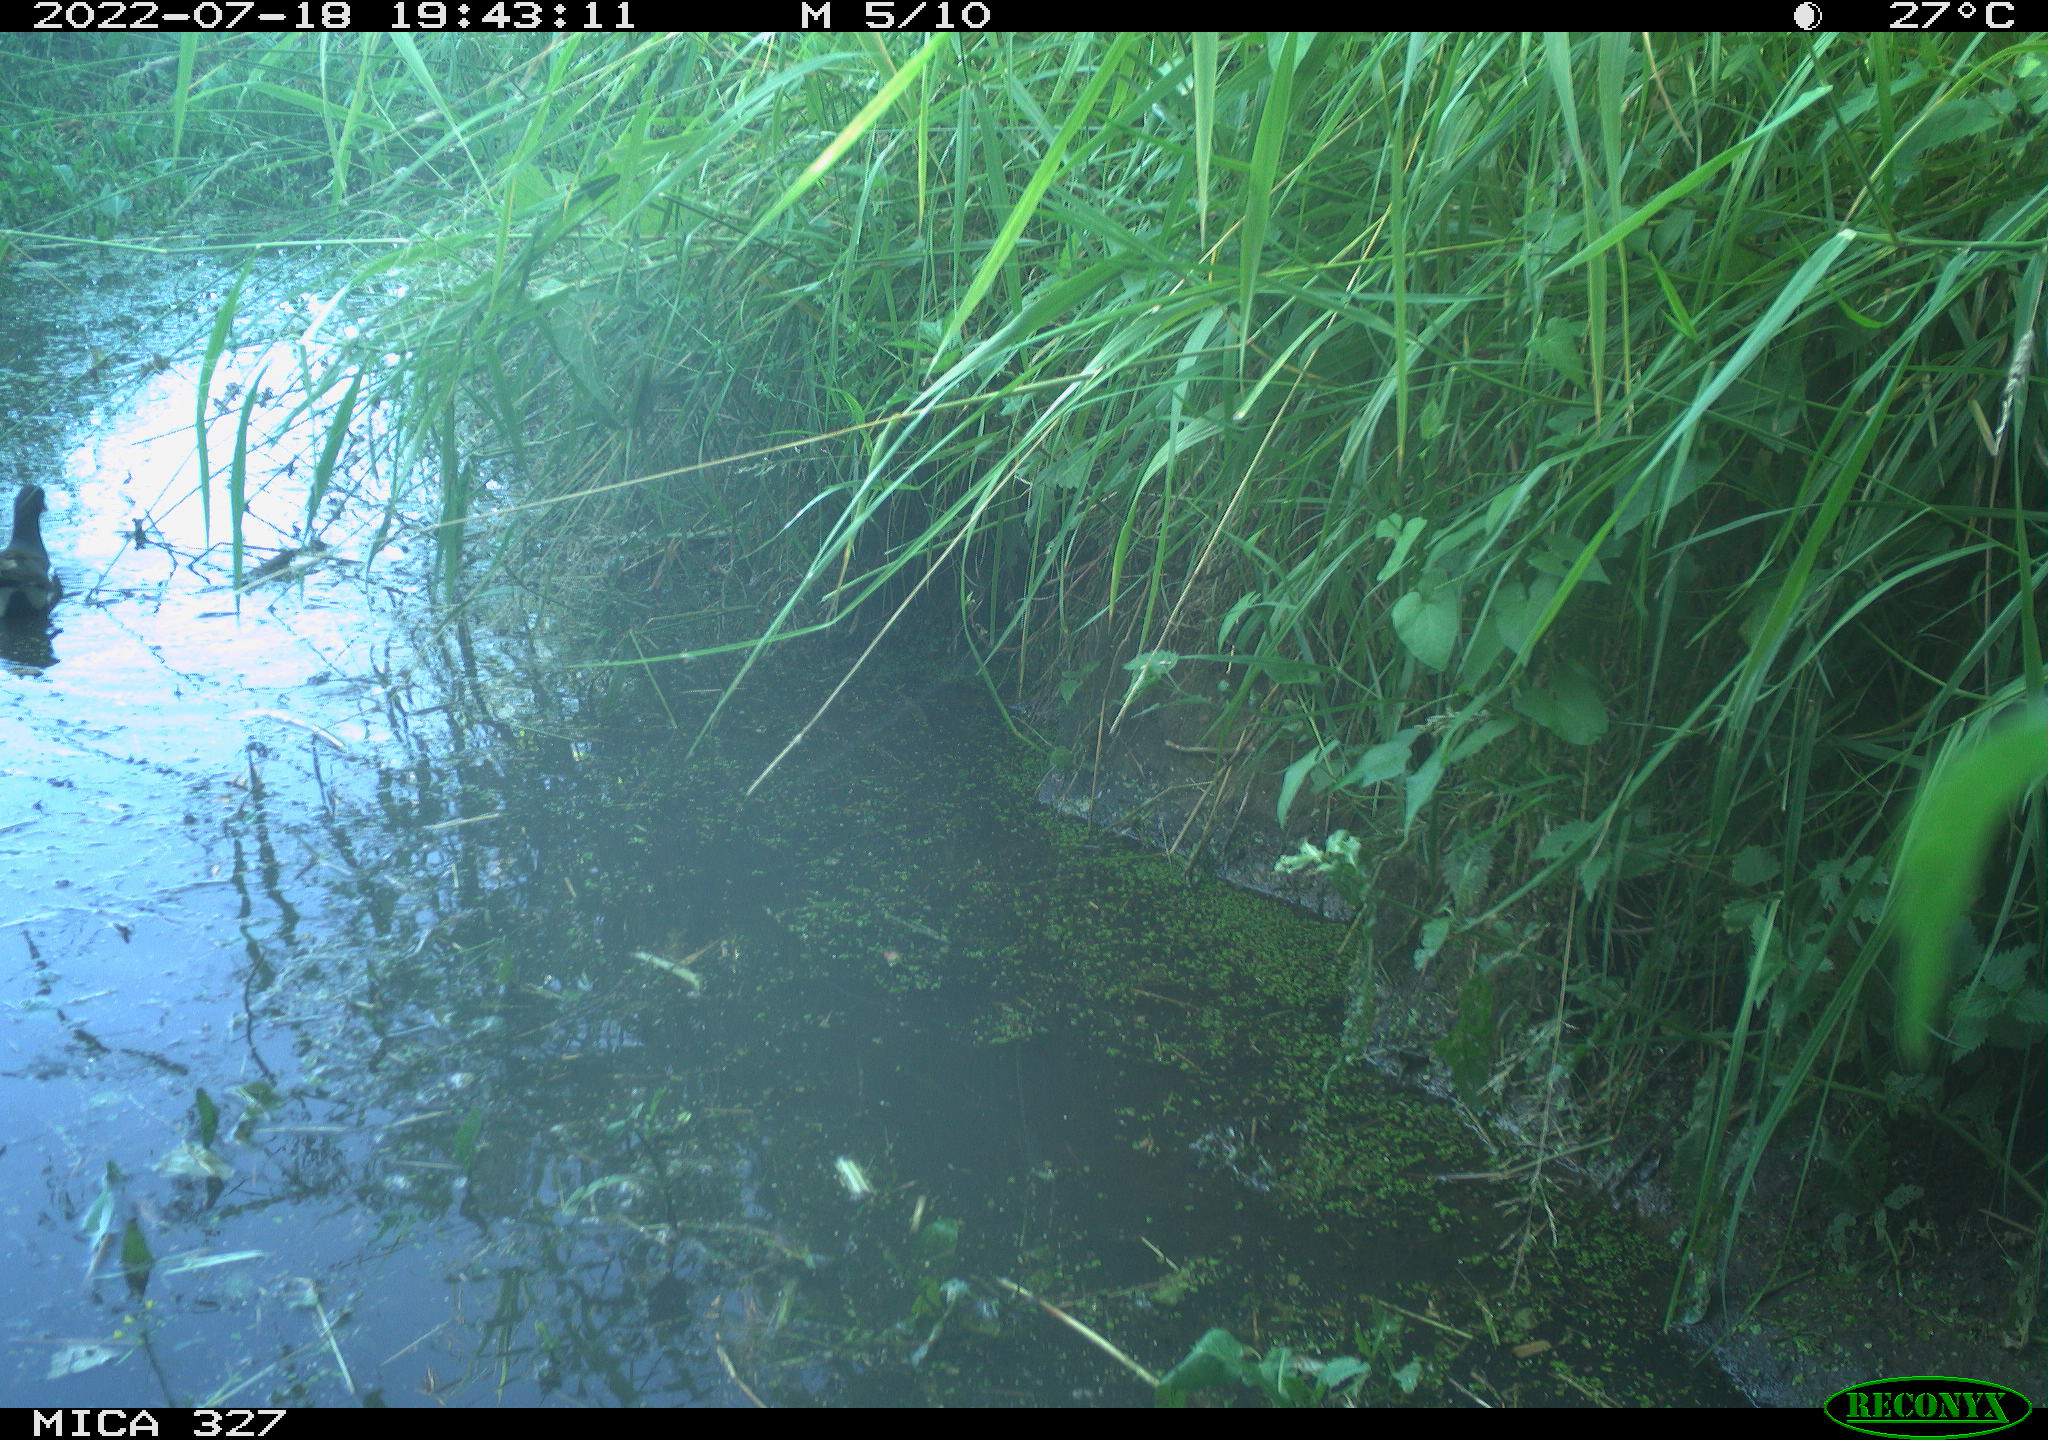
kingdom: Animalia
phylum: Chordata
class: Aves
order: Gruiformes
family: Rallidae
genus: Gallinula
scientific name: Gallinula chloropus
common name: Common moorhen
